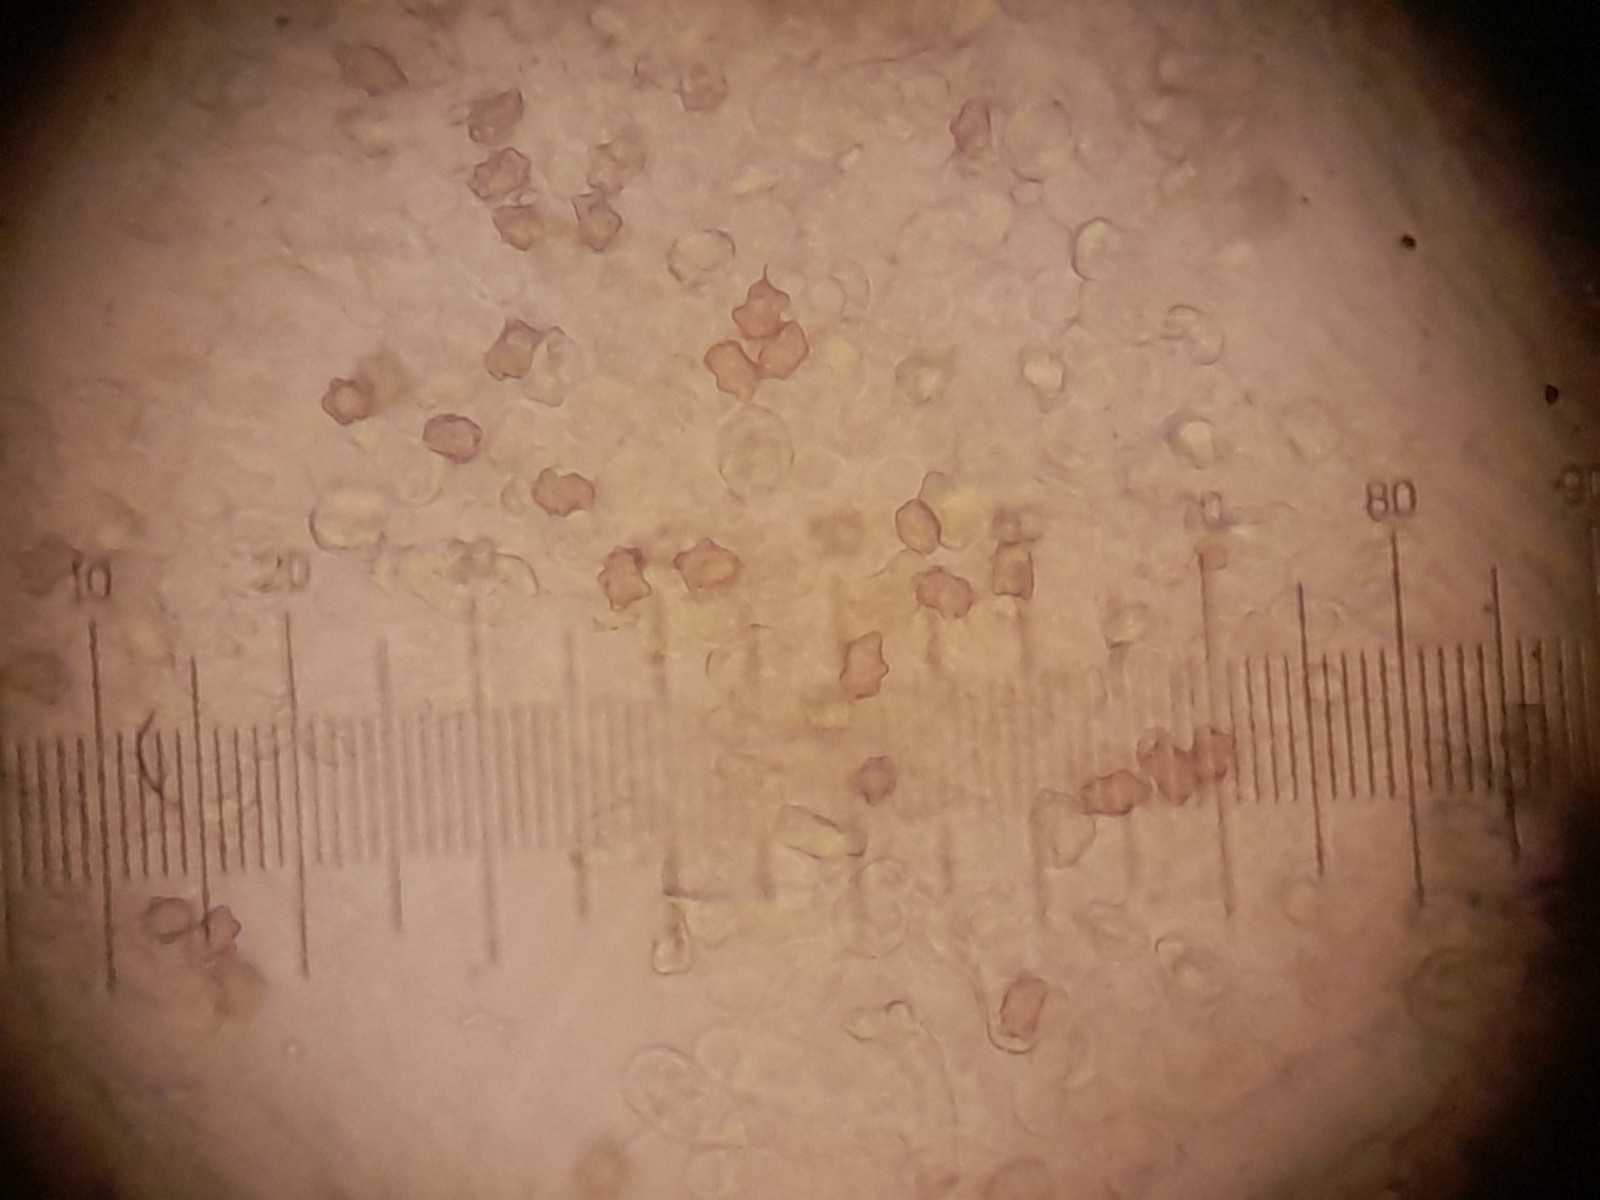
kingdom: Fungi
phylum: Basidiomycota
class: Agaricomycetes
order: Agaricales
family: Inocybaceae
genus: Inocybe
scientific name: Inocybe decemgibbosa
